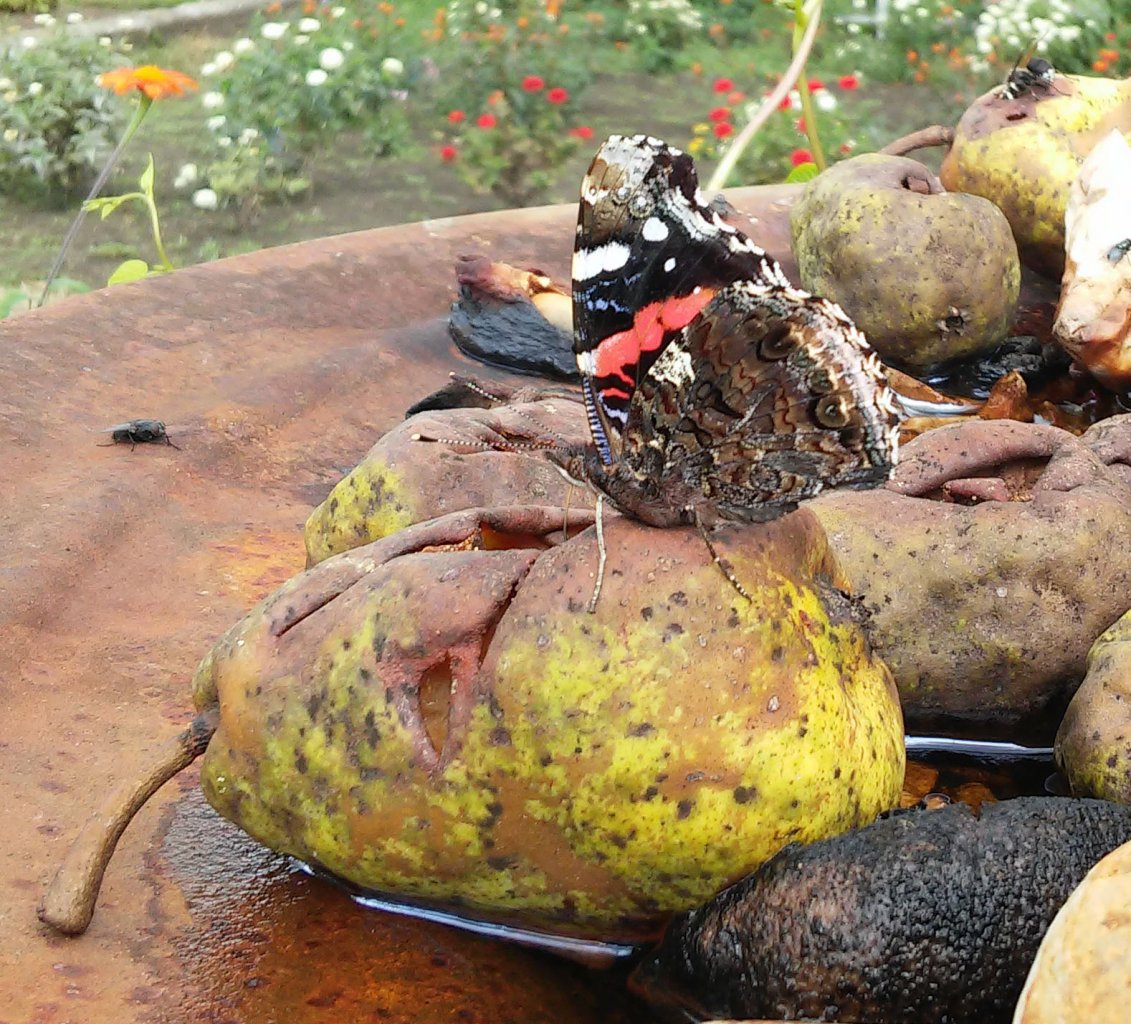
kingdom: Animalia
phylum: Arthropoda
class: Insecta
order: Lepidoptera
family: Nymphalidae
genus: Vanessa
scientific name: Vanessa atalanta
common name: Red Admiral
